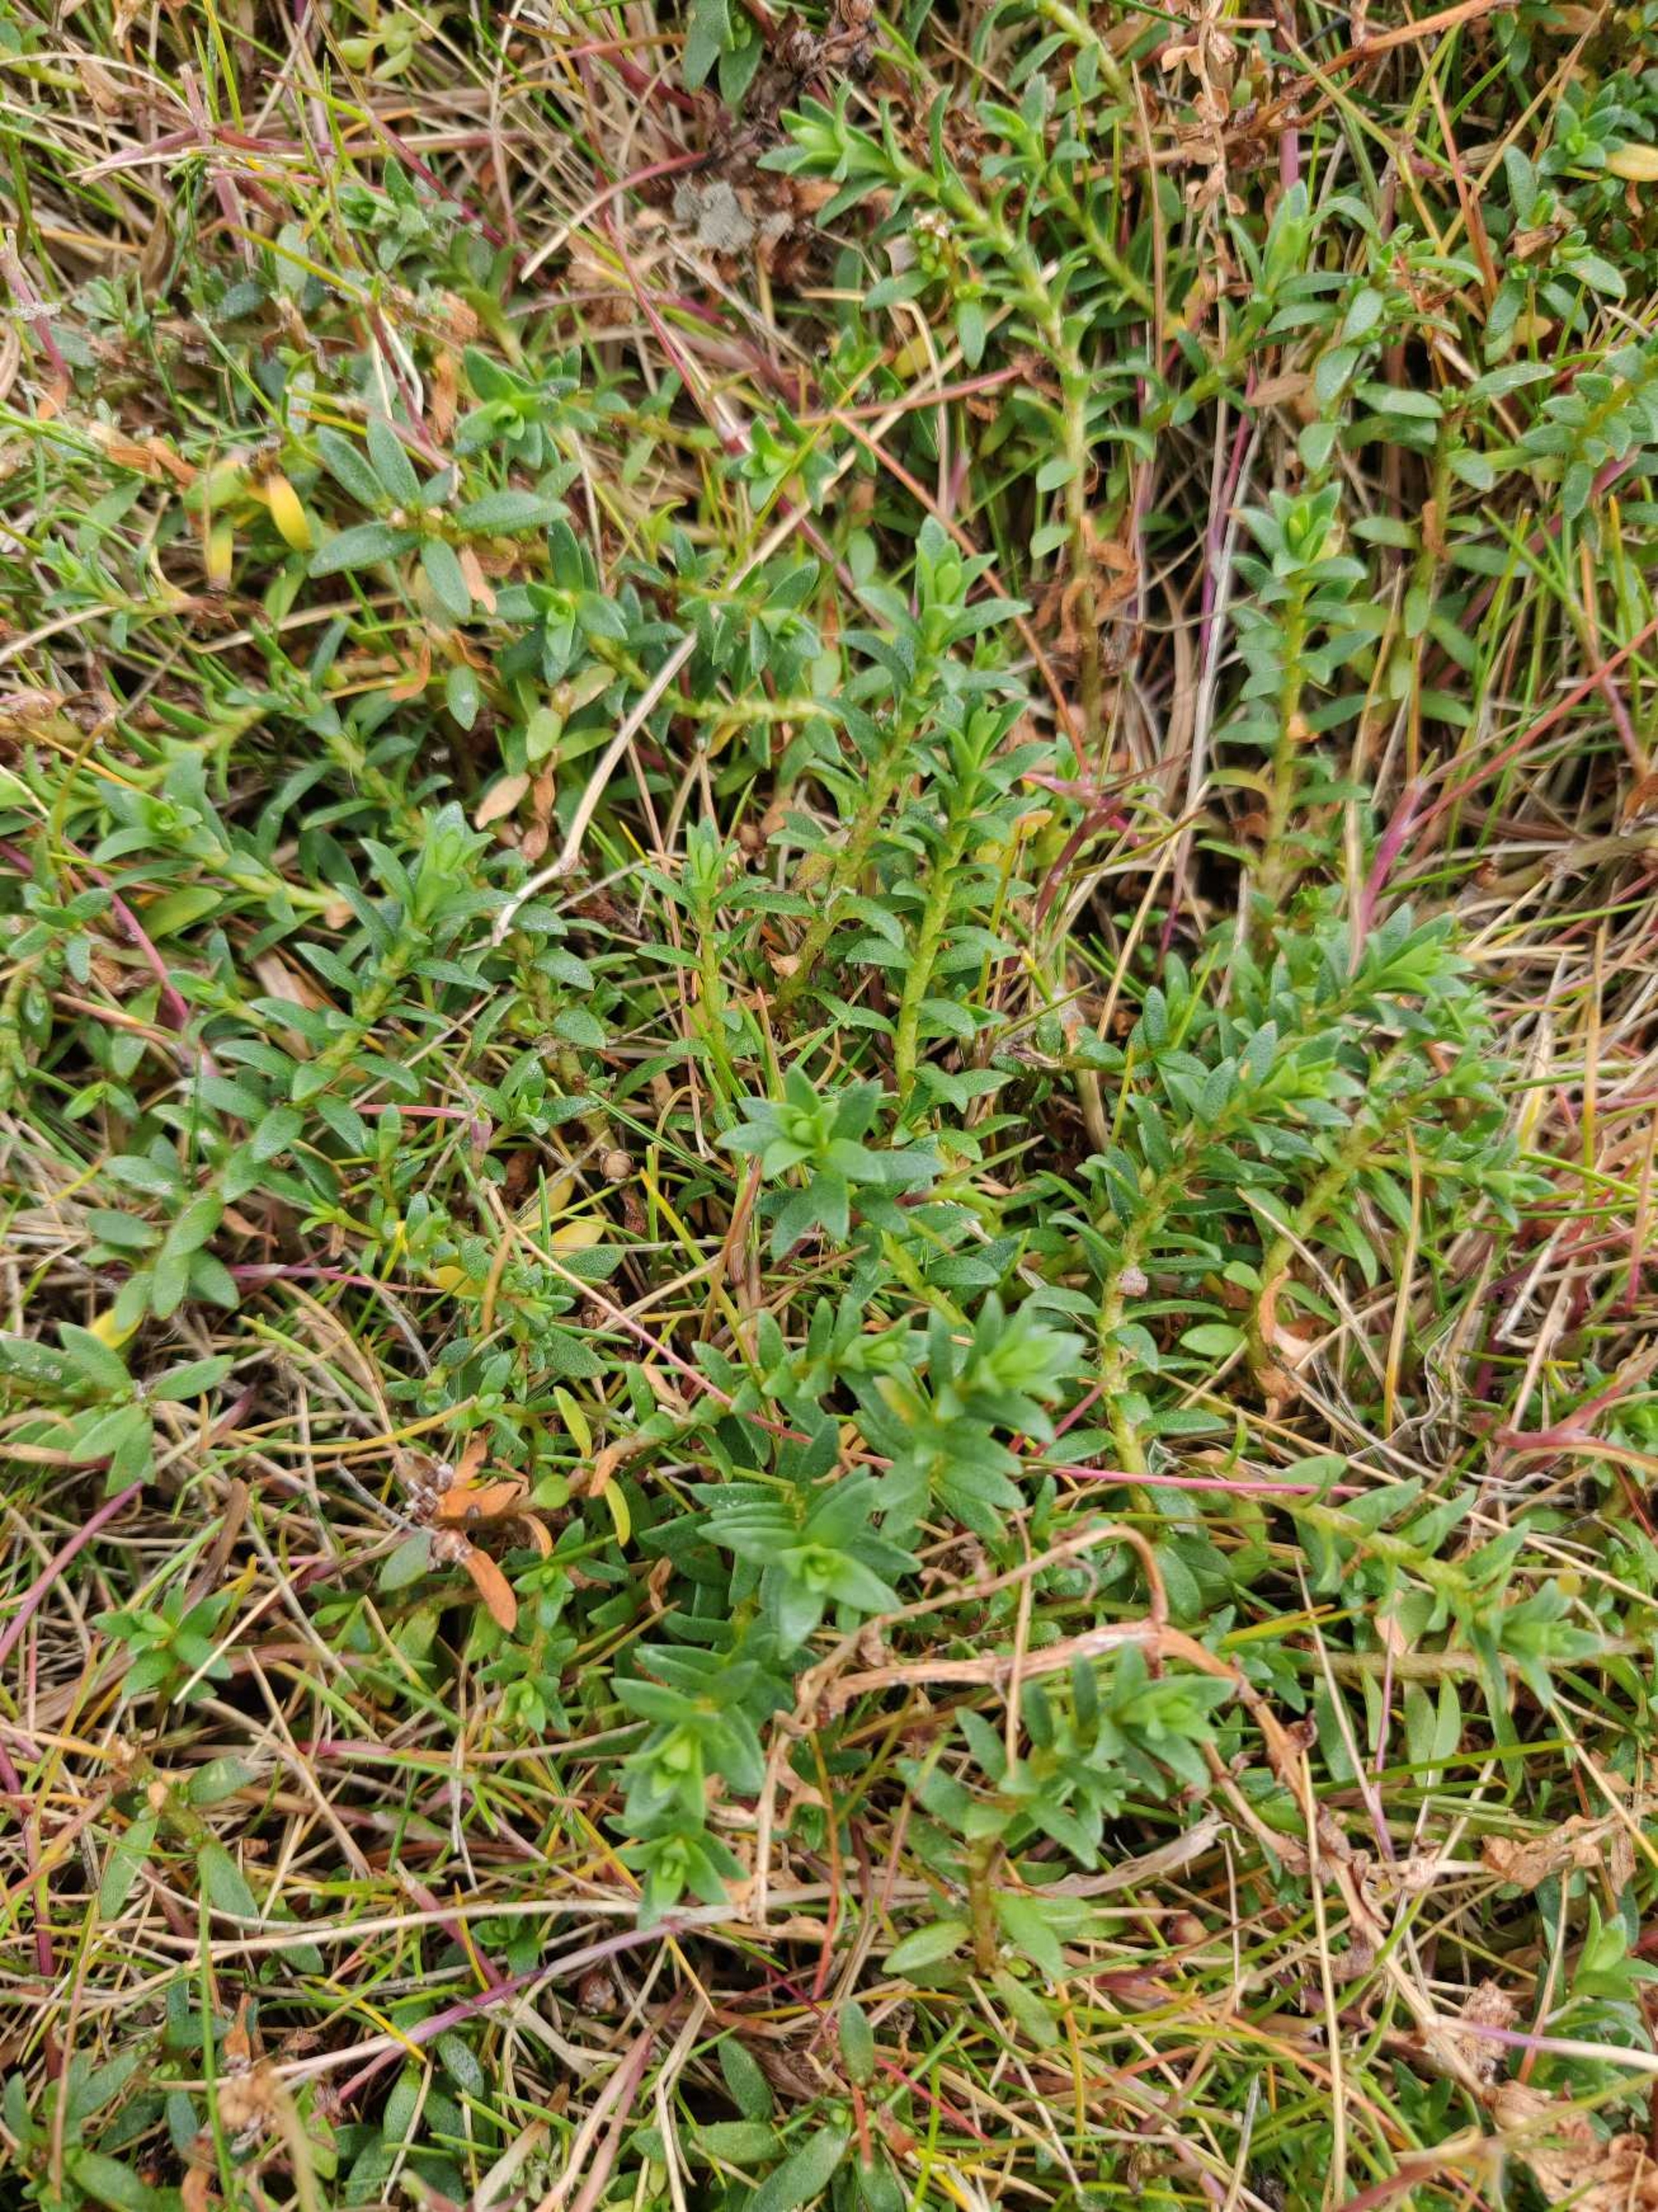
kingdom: Plantae
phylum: Tracheophyta
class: Magnoliopsida
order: Ericales
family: Primulaceae
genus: Lysimachia
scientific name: Lysimachia maritima
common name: Sandkryb
